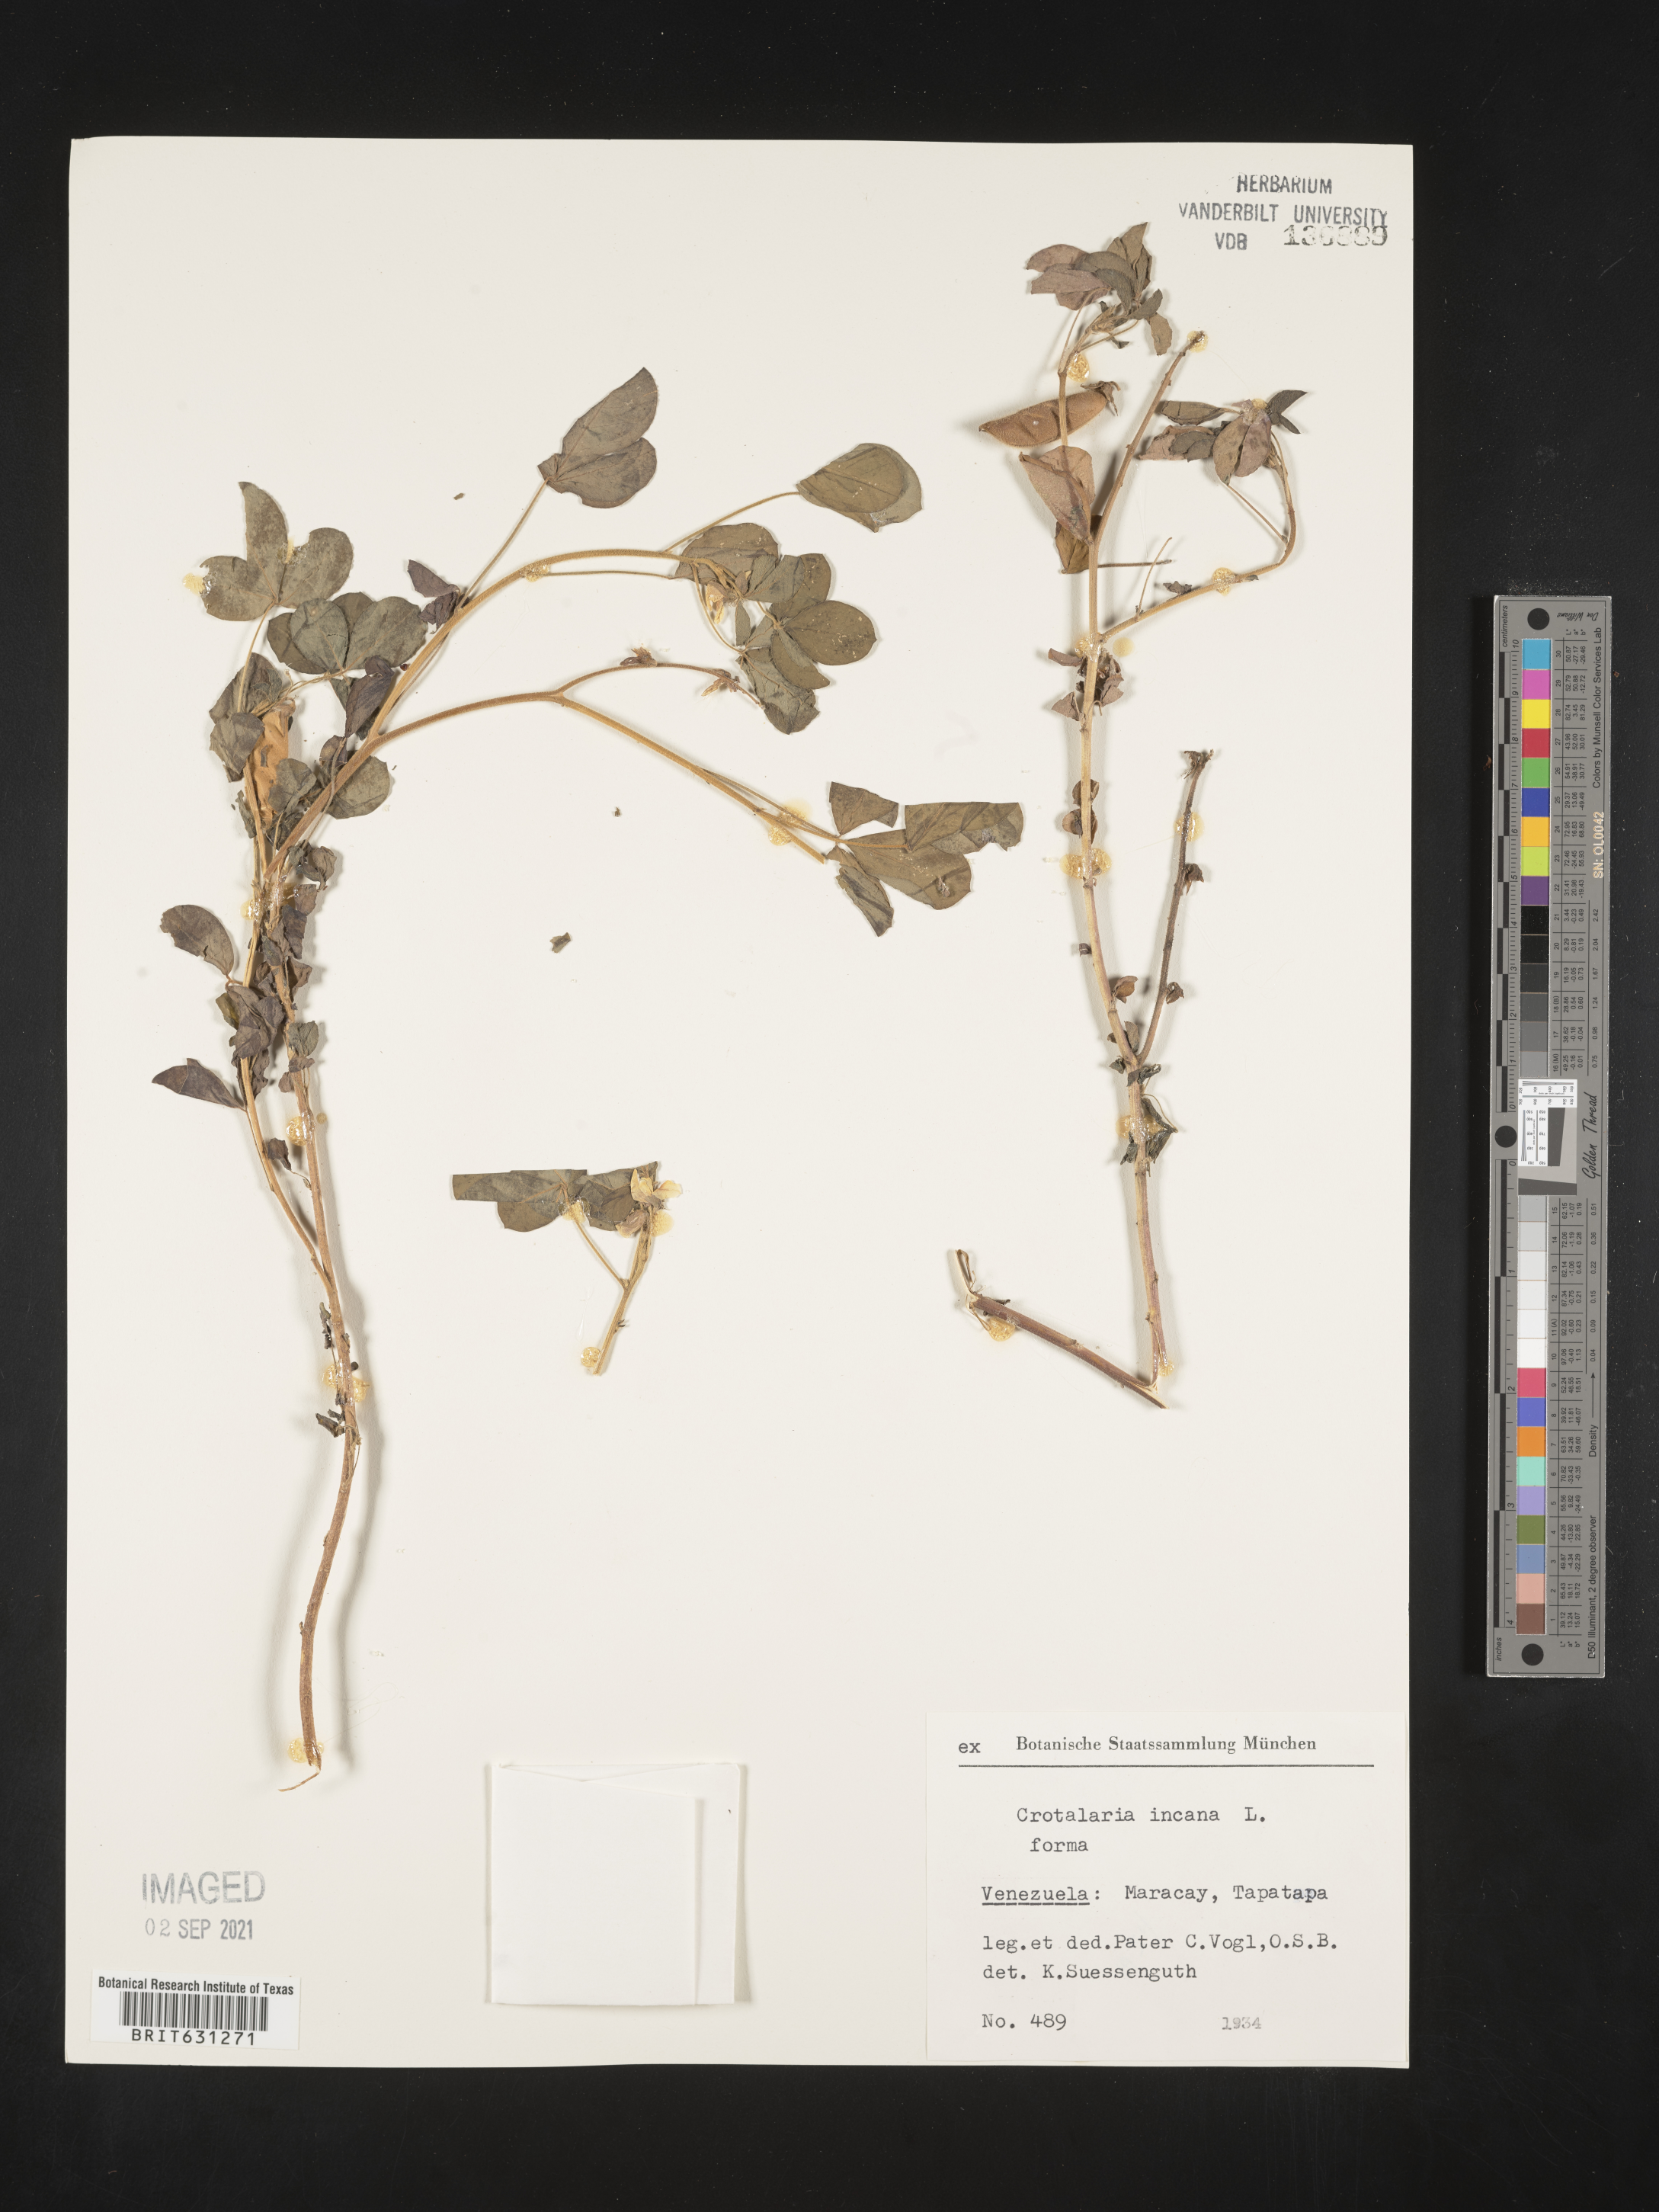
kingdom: Plantae
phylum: Tracheophyta
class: Magnoliopsida
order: Fabales
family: Fabaceae
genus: Crotalaria
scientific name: Crotalaria incana
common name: Shakeshake
